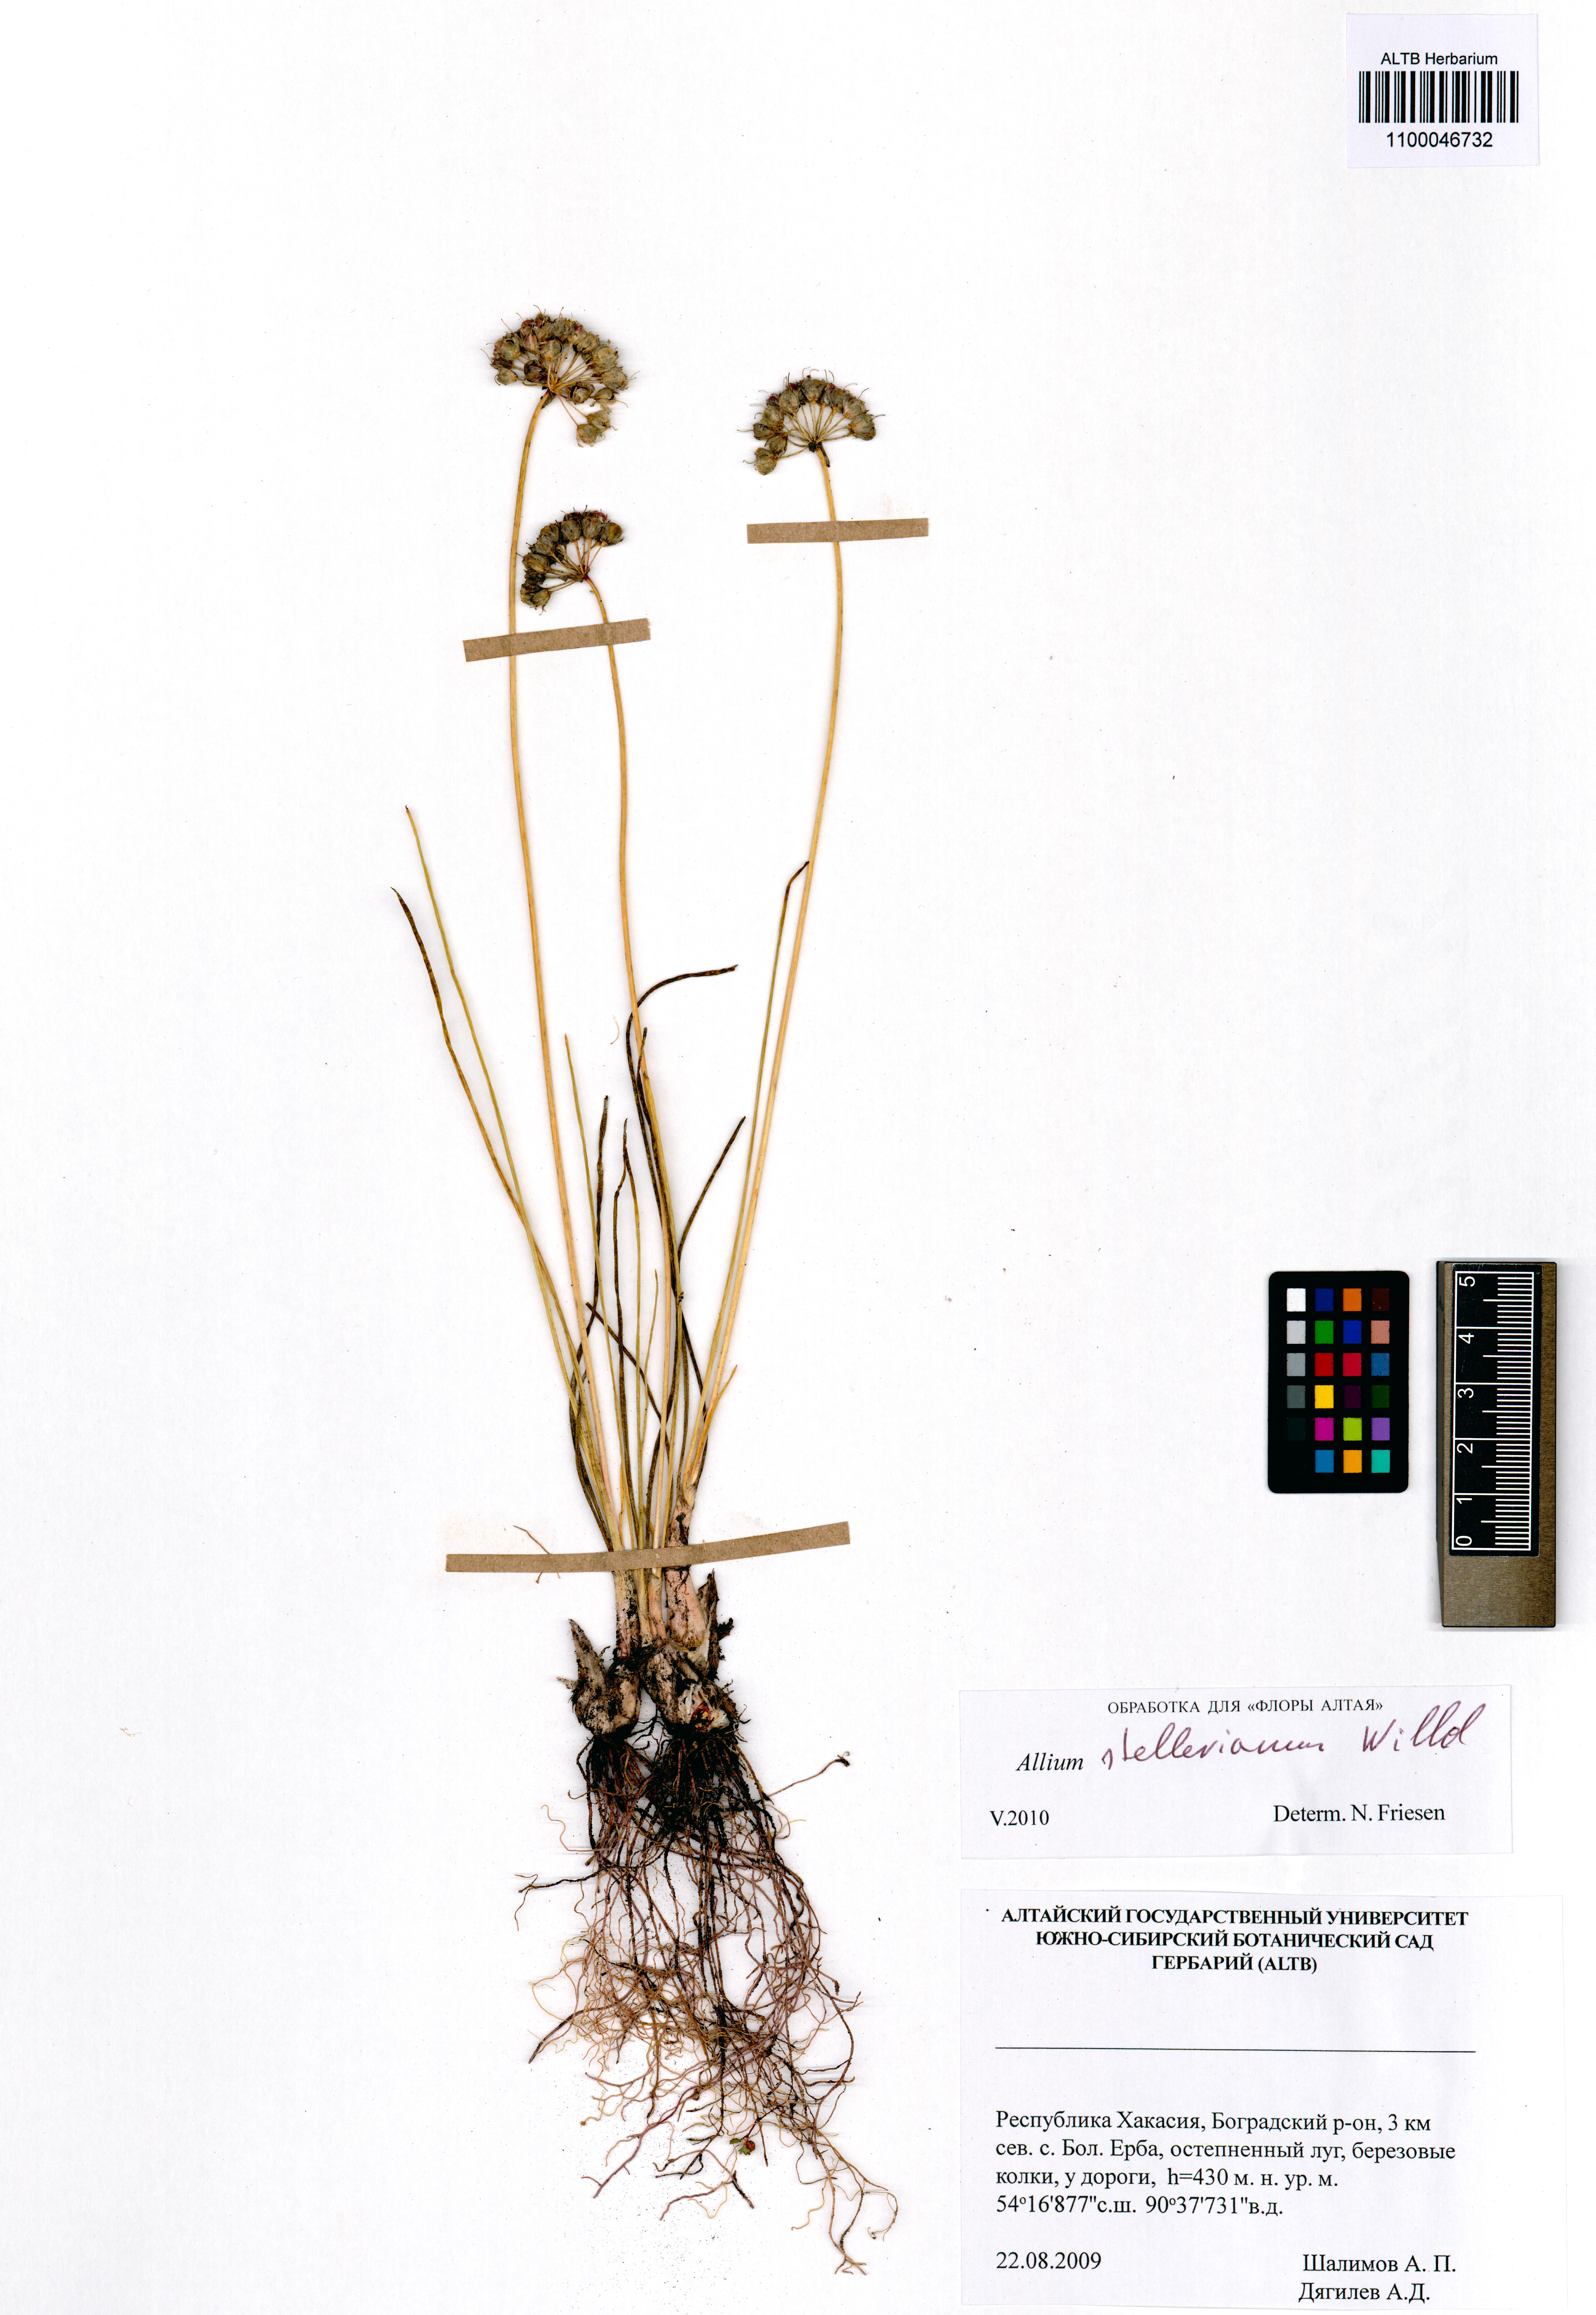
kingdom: Plantae
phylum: Tracheophyta
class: Liliopsida
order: Asparagales
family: Amaryllidaceae
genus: Allium
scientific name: Allium stellerianum
